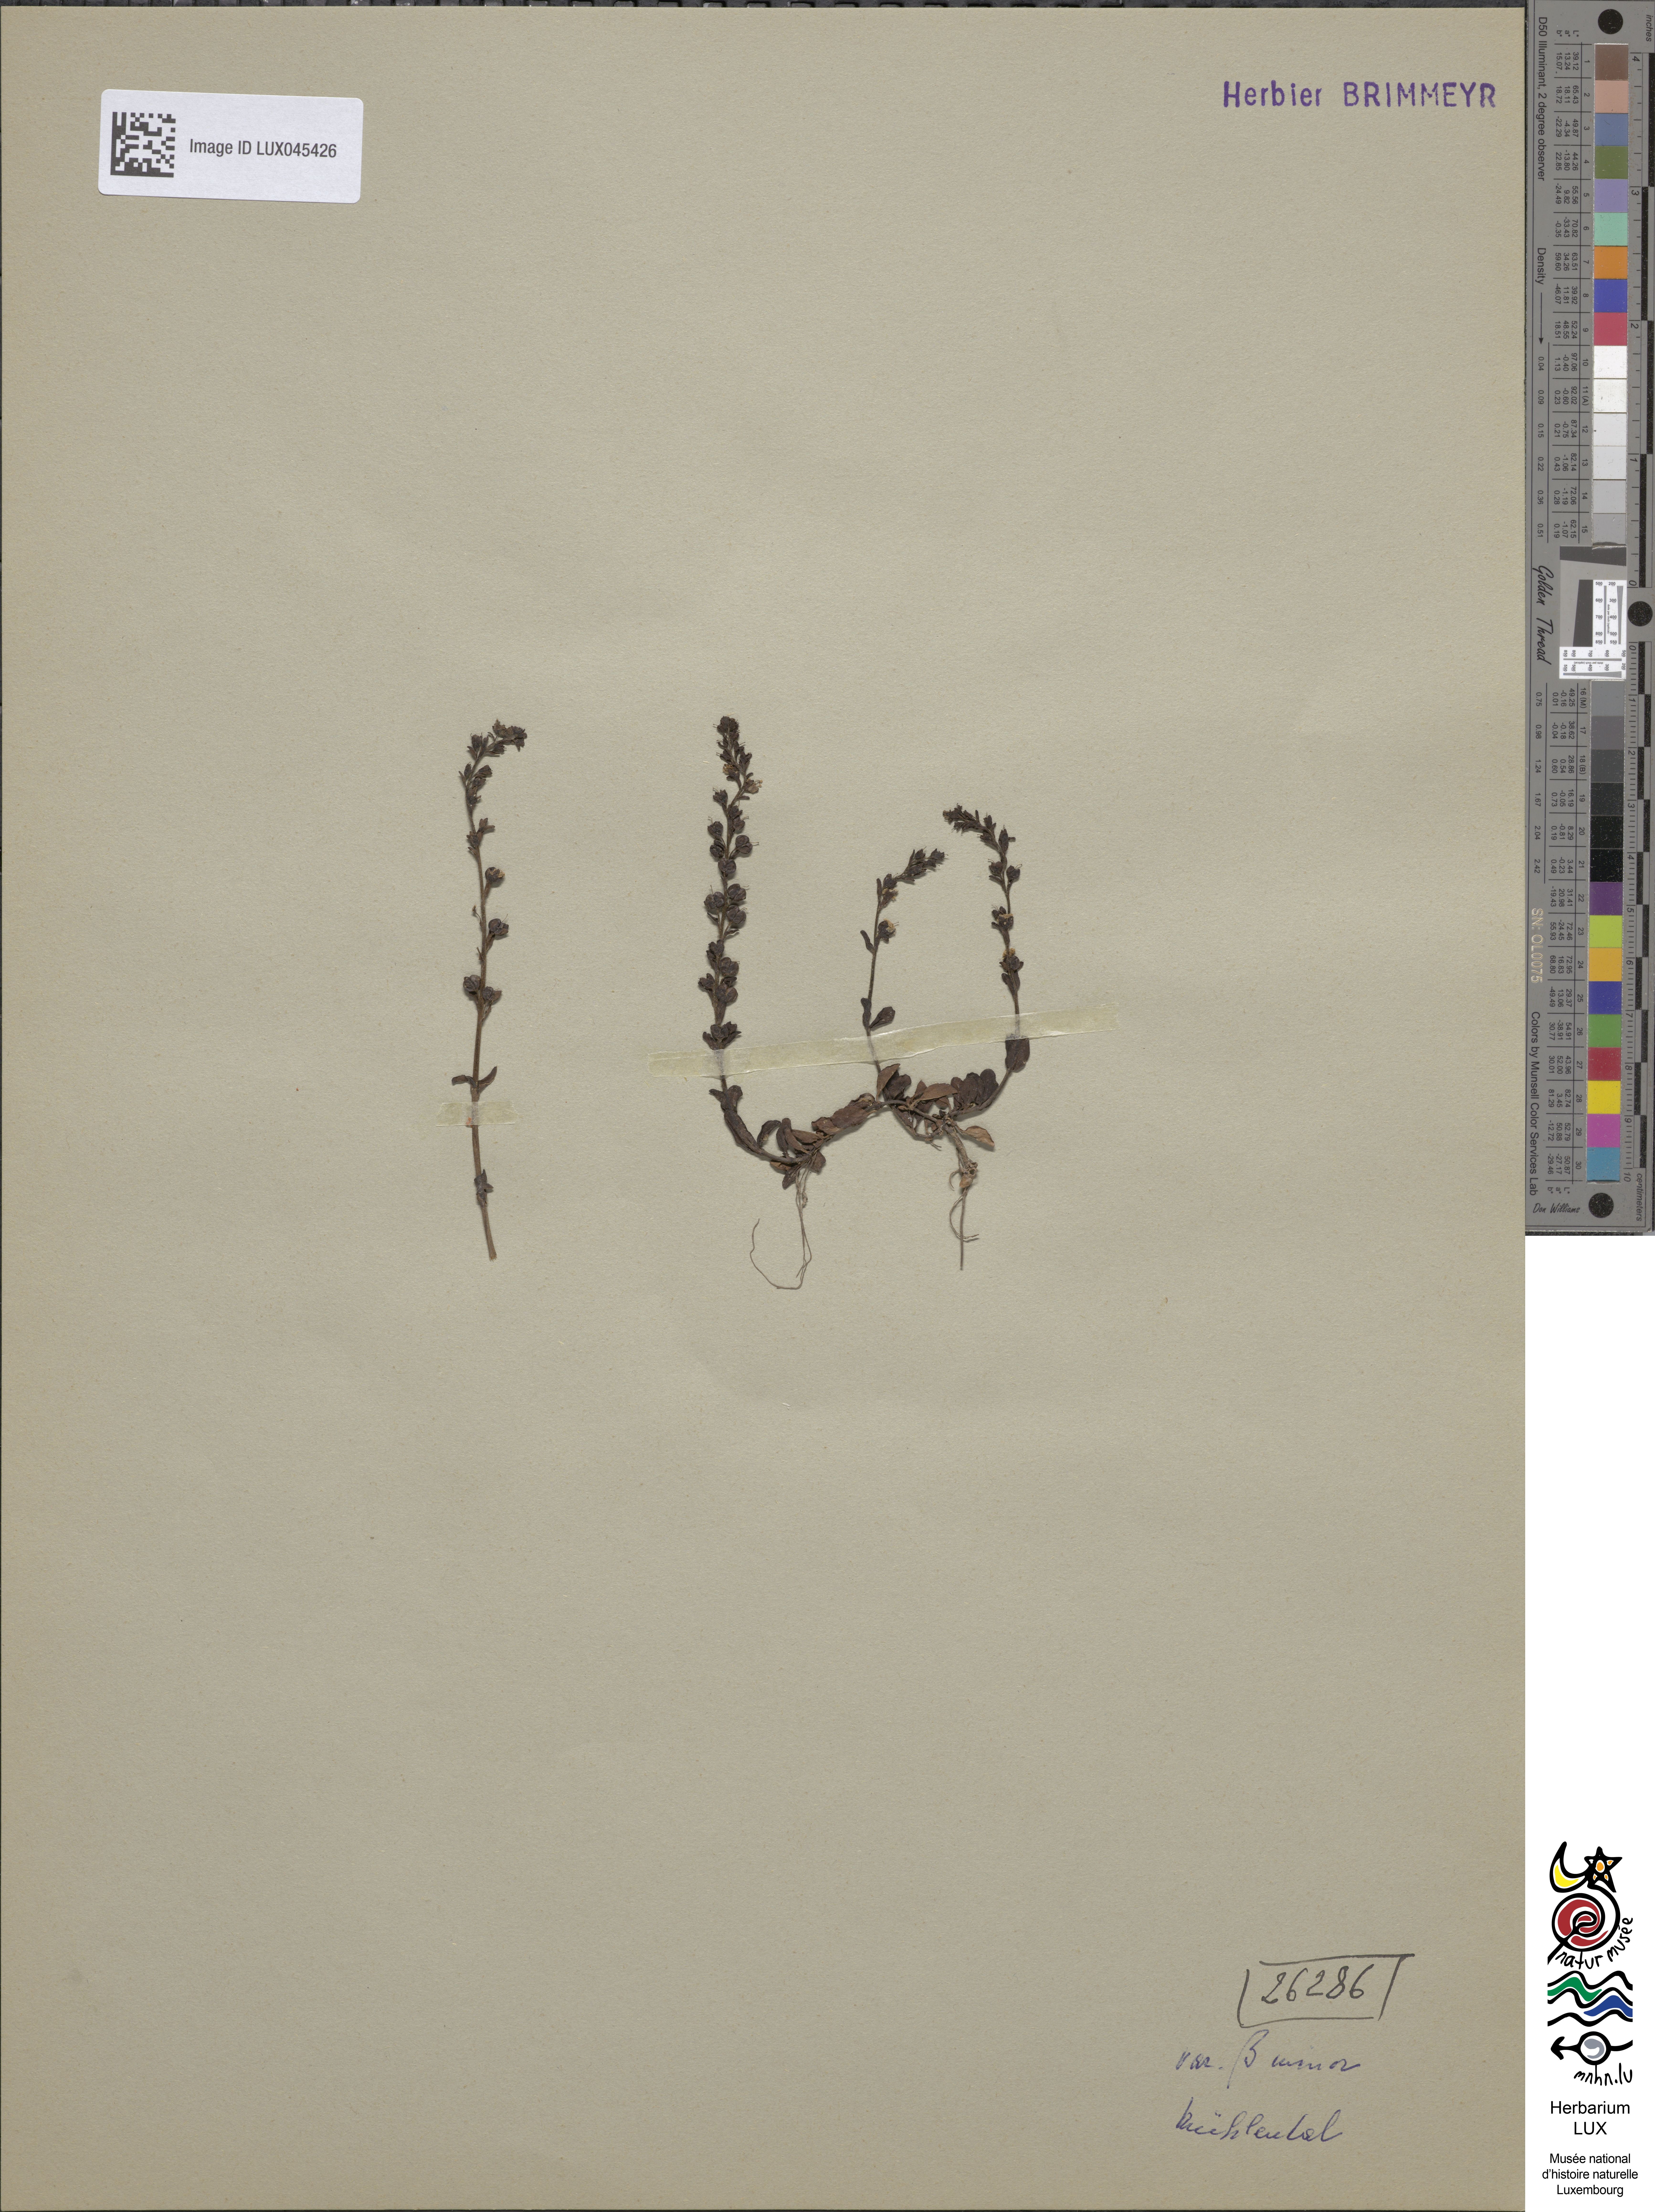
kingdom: Plantae
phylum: Tracheophyta
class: Magnoliopsida
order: Lamiales
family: Plantaginaceae
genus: Veronica
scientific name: Veronica serpyllifolia
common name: Thyme-leaved speedwell
